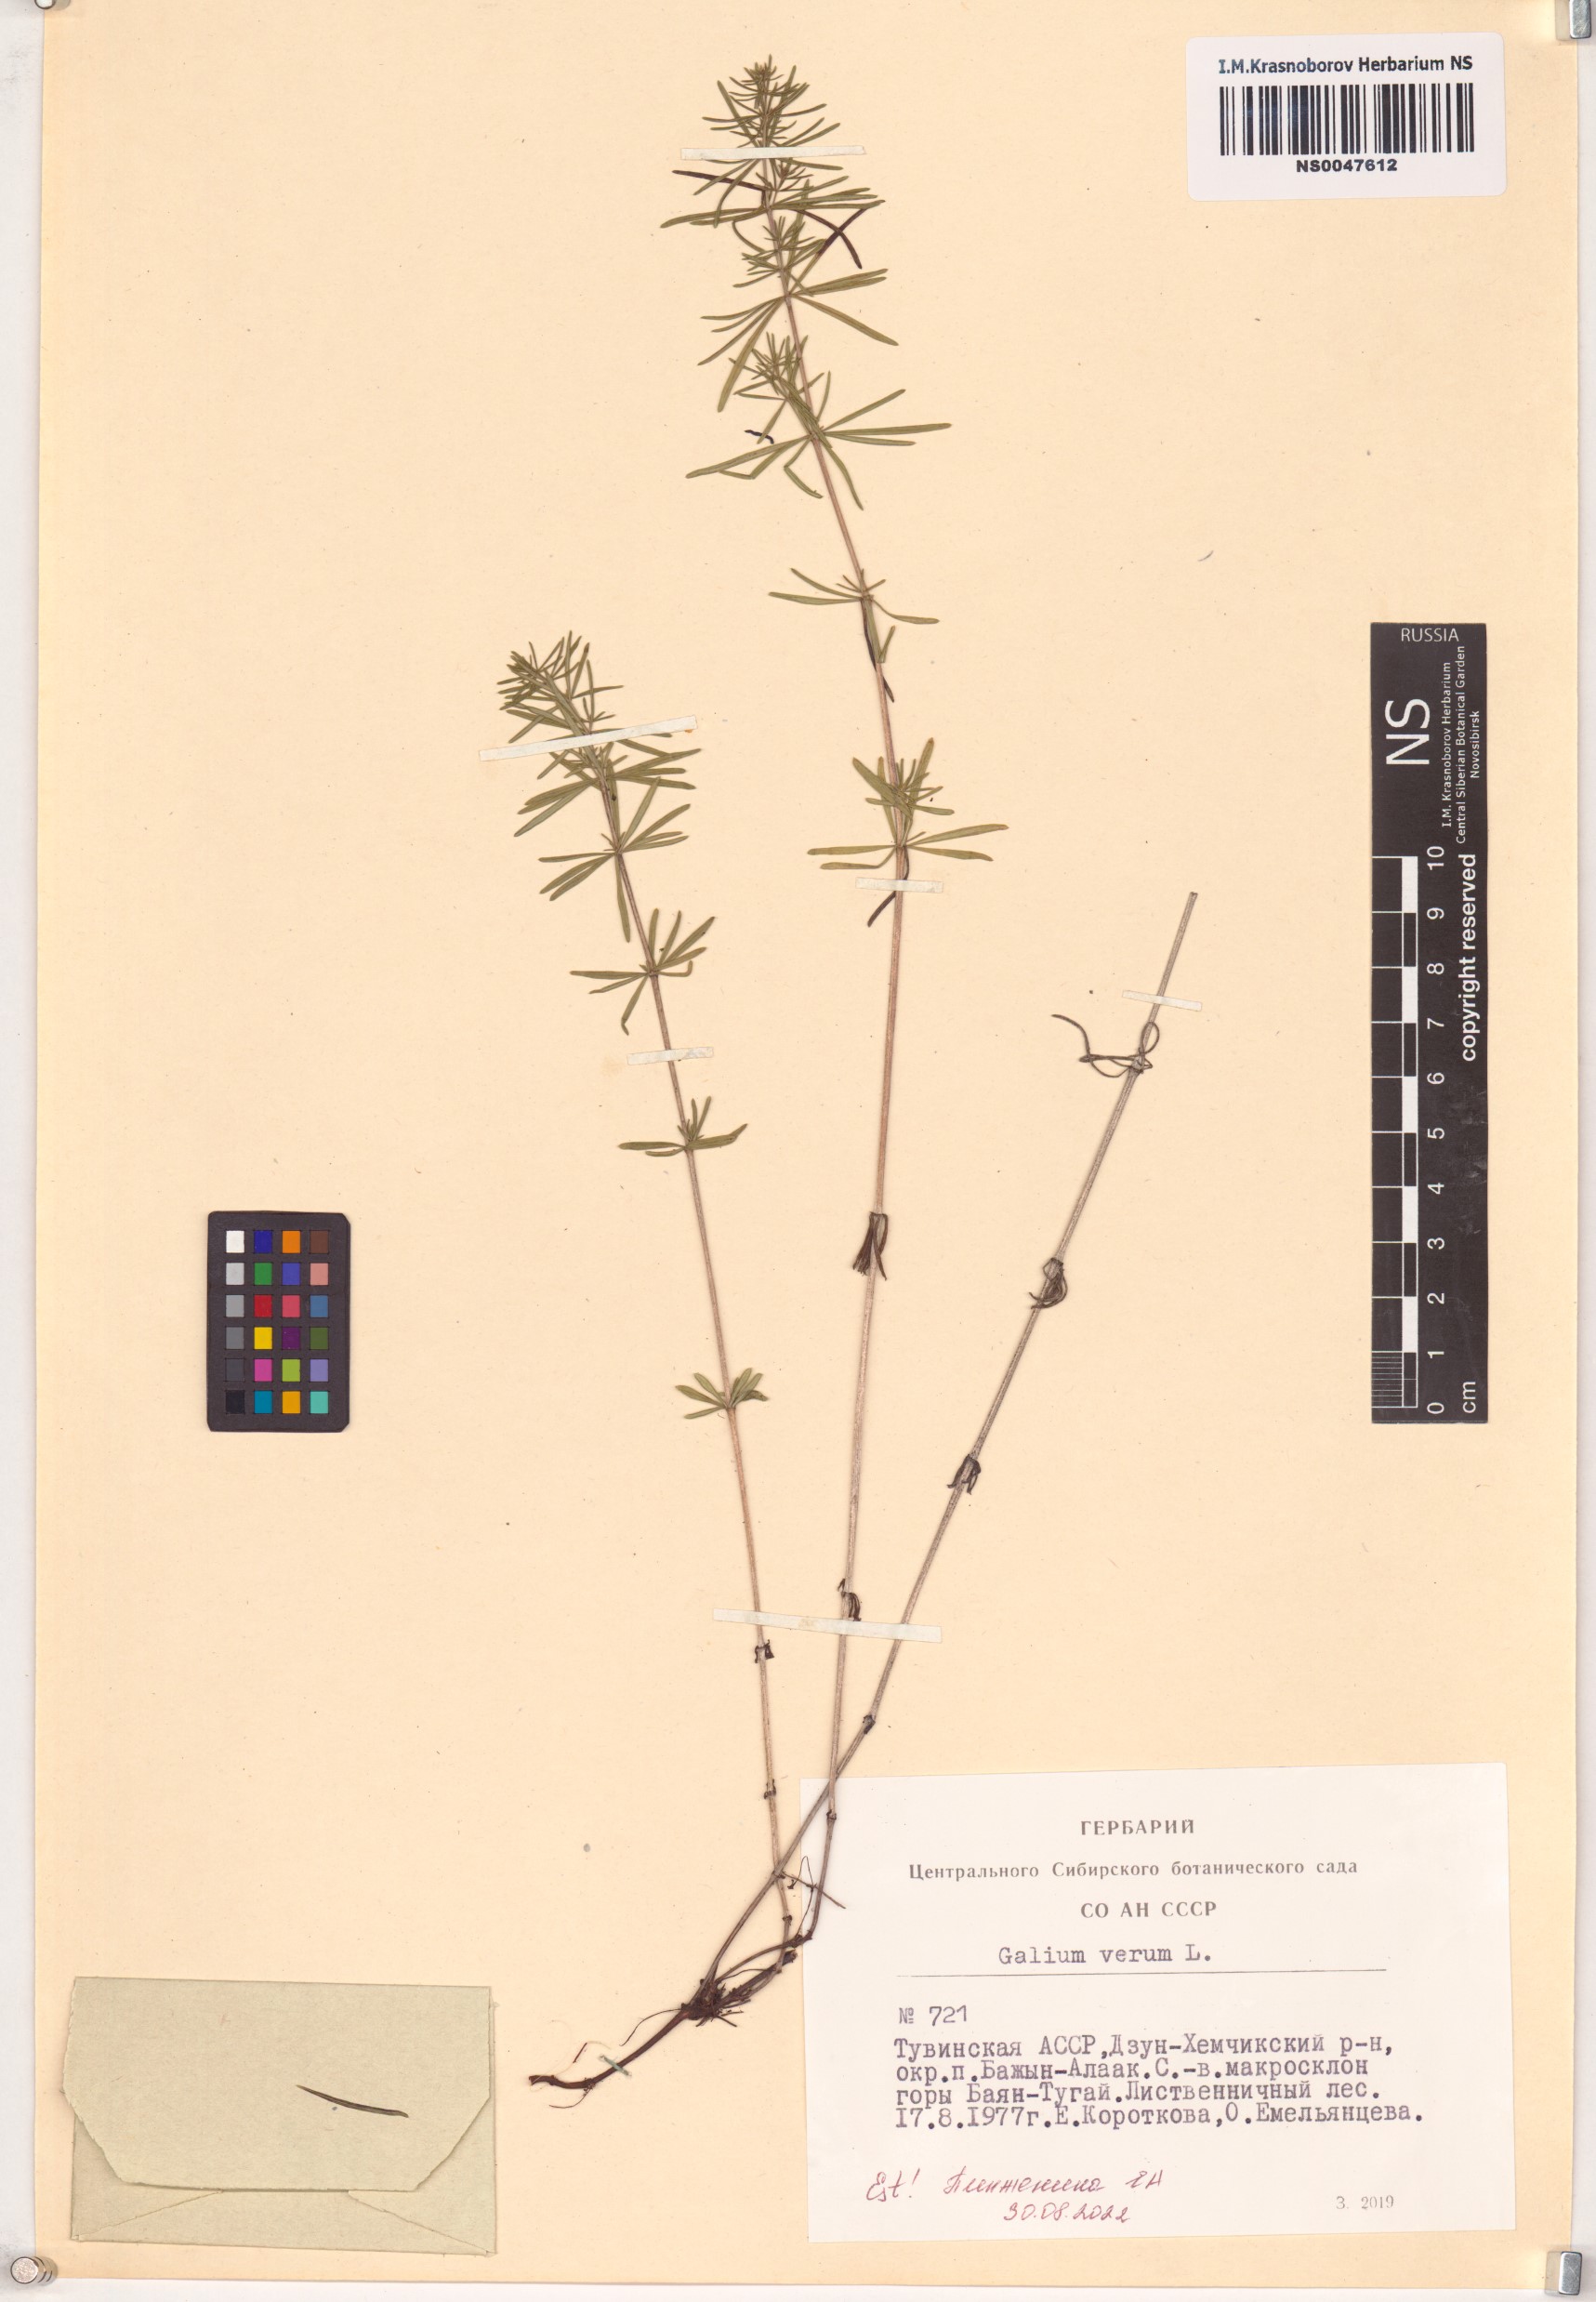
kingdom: Plantae
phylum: Tracheophyta
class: Magnoliopsida
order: Gentianales
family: Rubiaceae
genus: Galium
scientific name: Galium verum
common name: Lady's bedstraw
